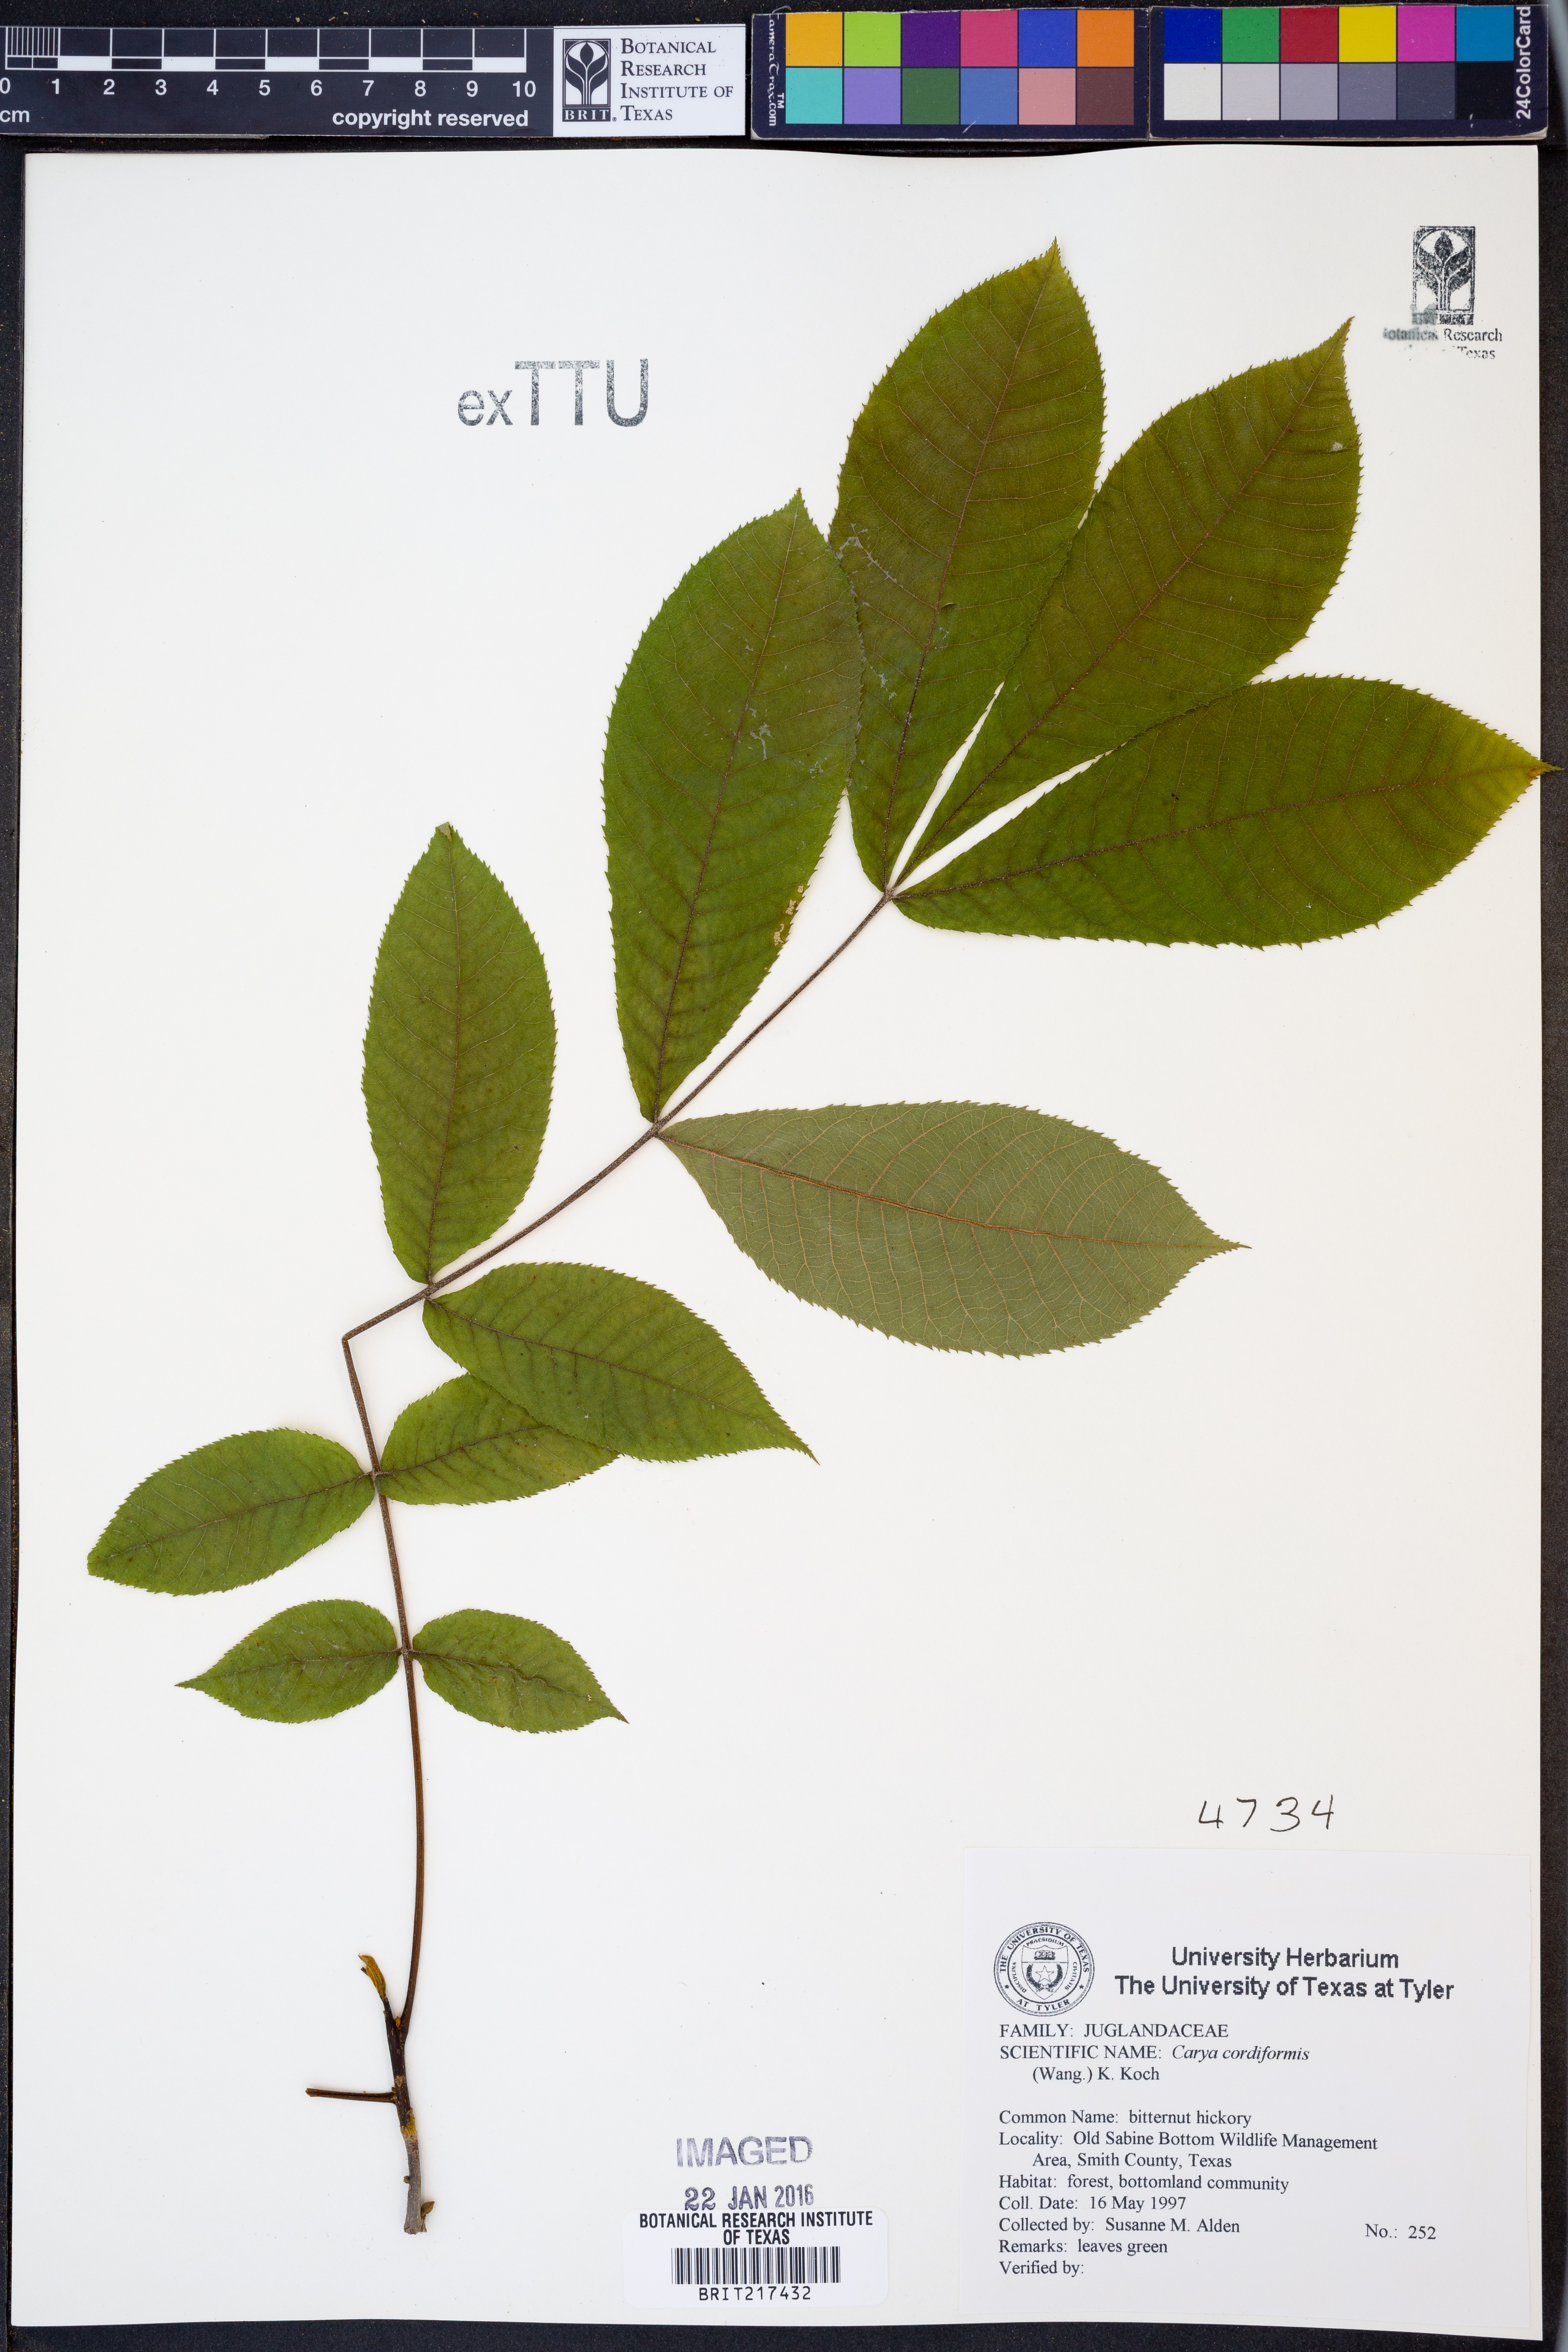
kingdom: Plantae
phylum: Tracheophyta
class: Magnoliopsida
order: Fagales
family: Juglandaceae
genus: Carya
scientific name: Carya cordiformis
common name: Bitternut hickory
